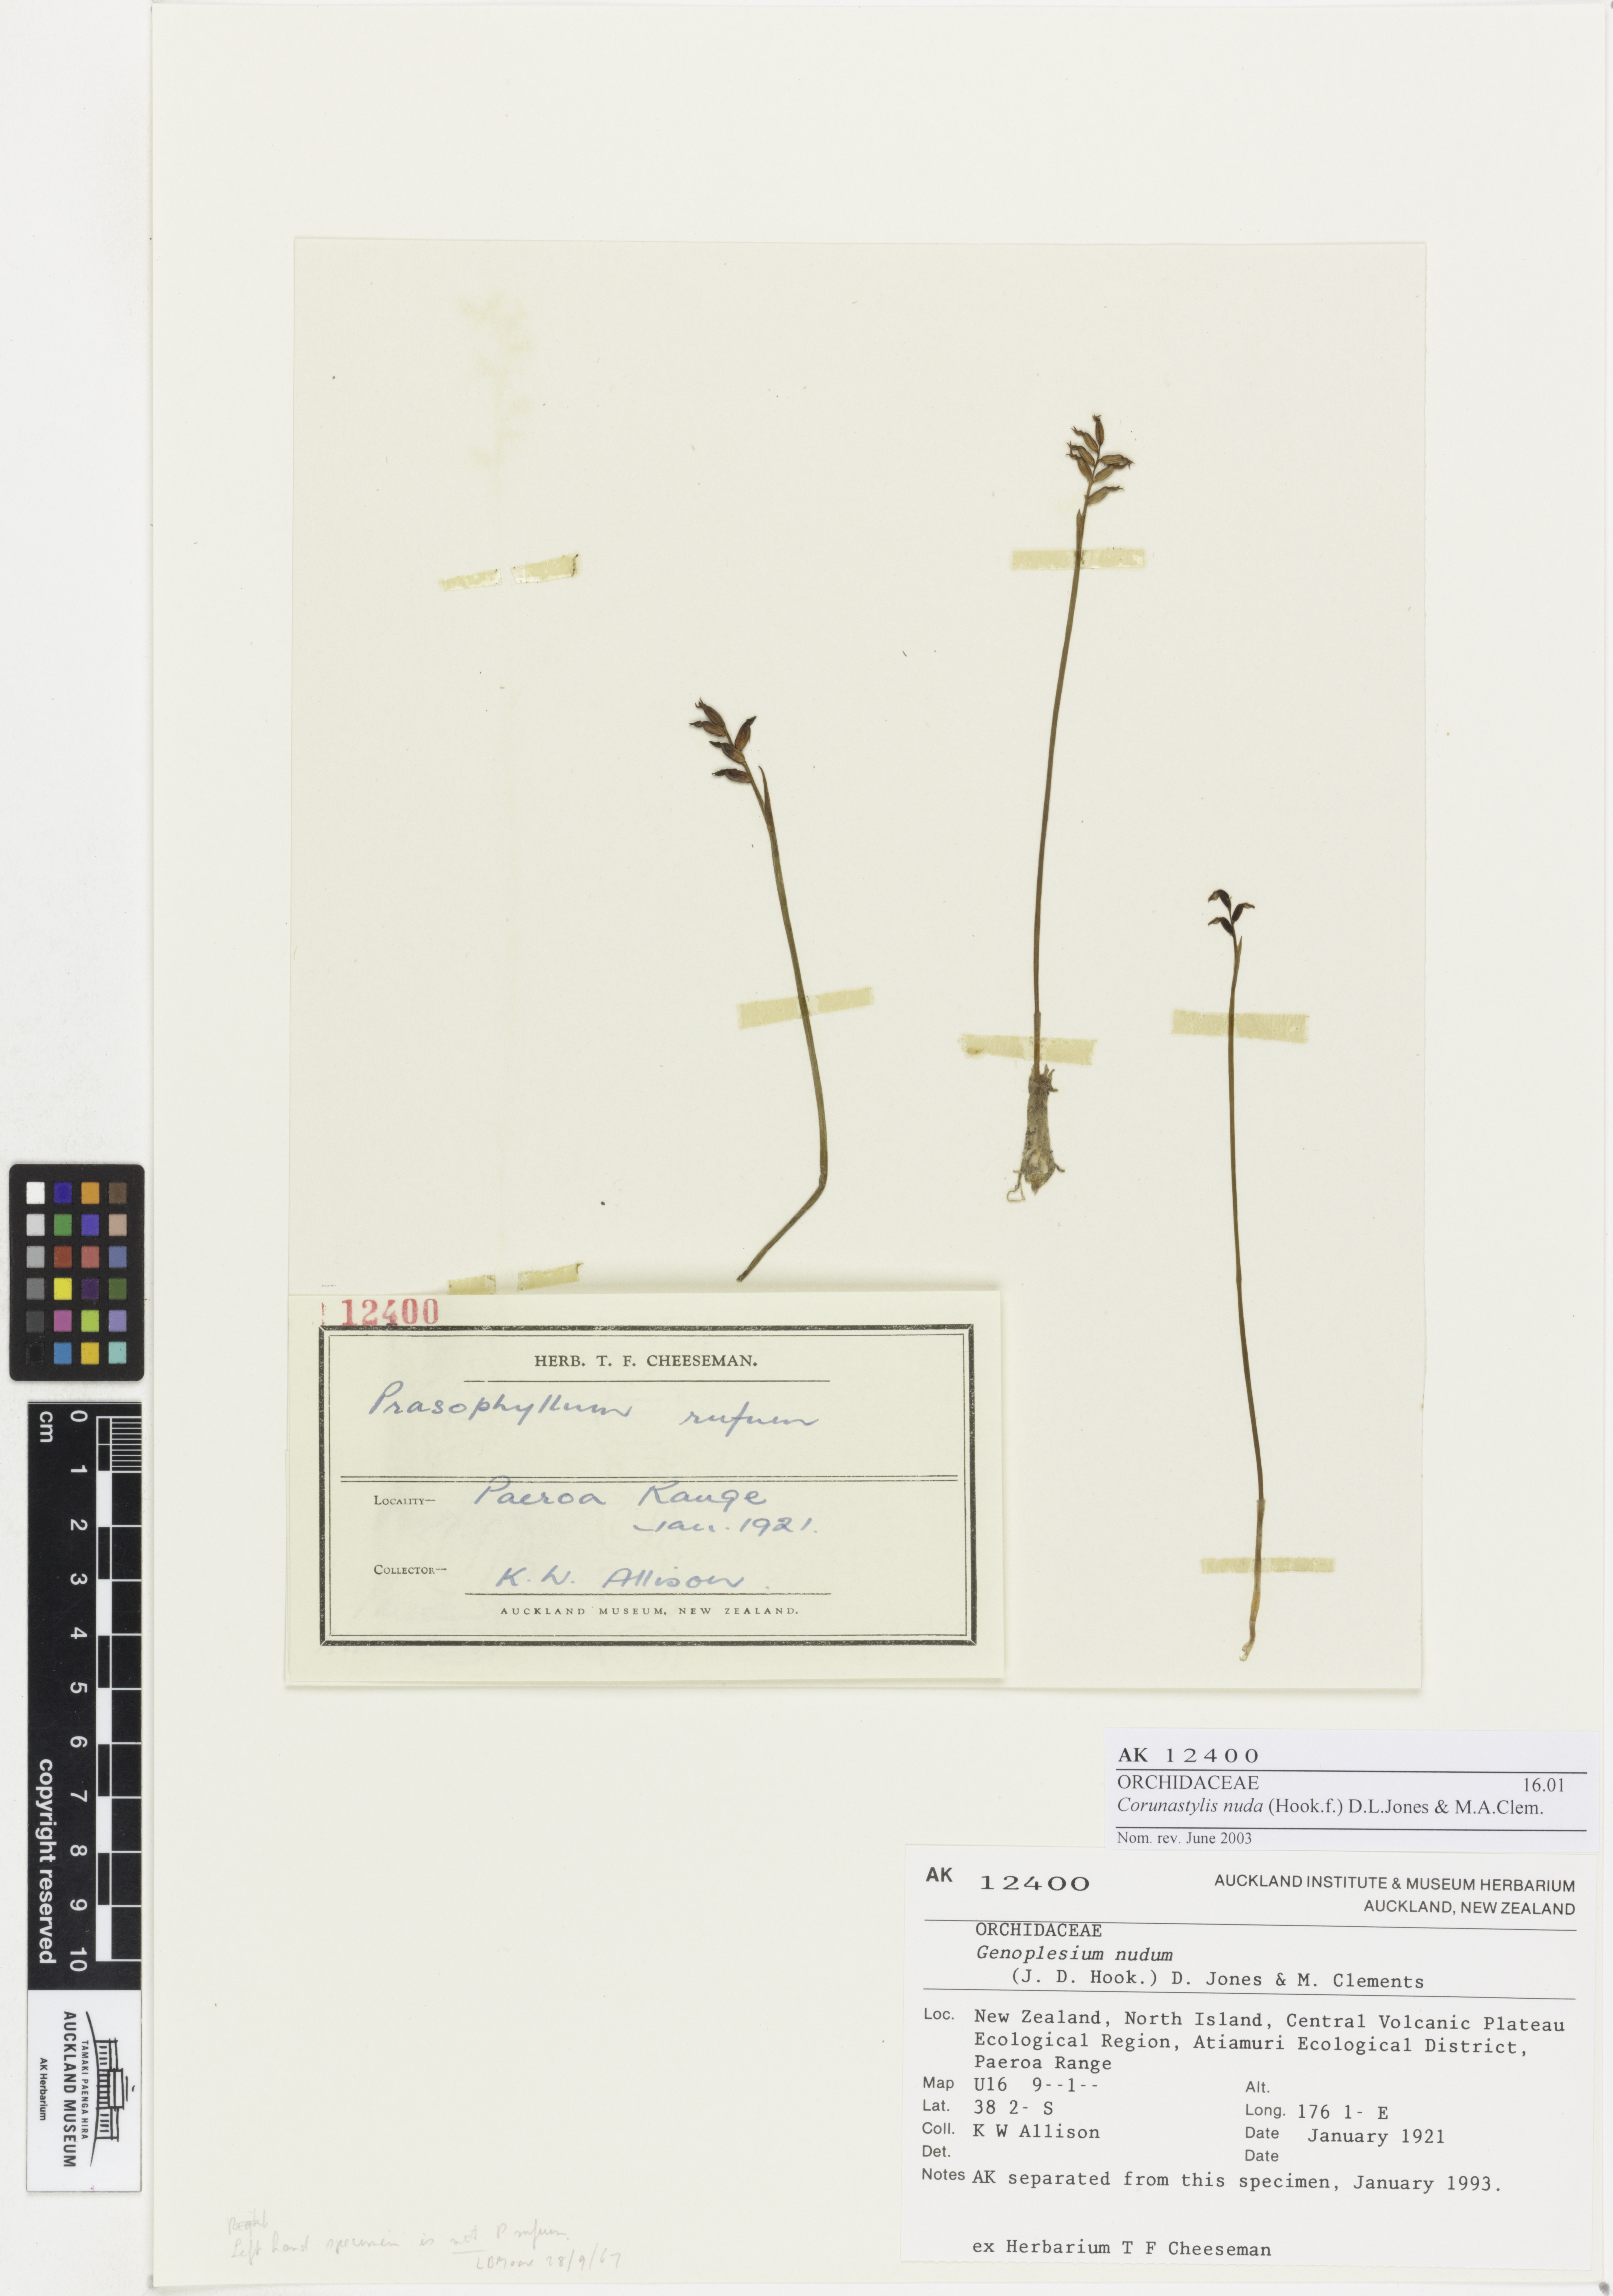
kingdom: Plantae
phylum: Tracheophyta
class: Liliopsida
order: Asparagales
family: Orchidaceae
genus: Genoplesium
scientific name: Genoplesium nudum
